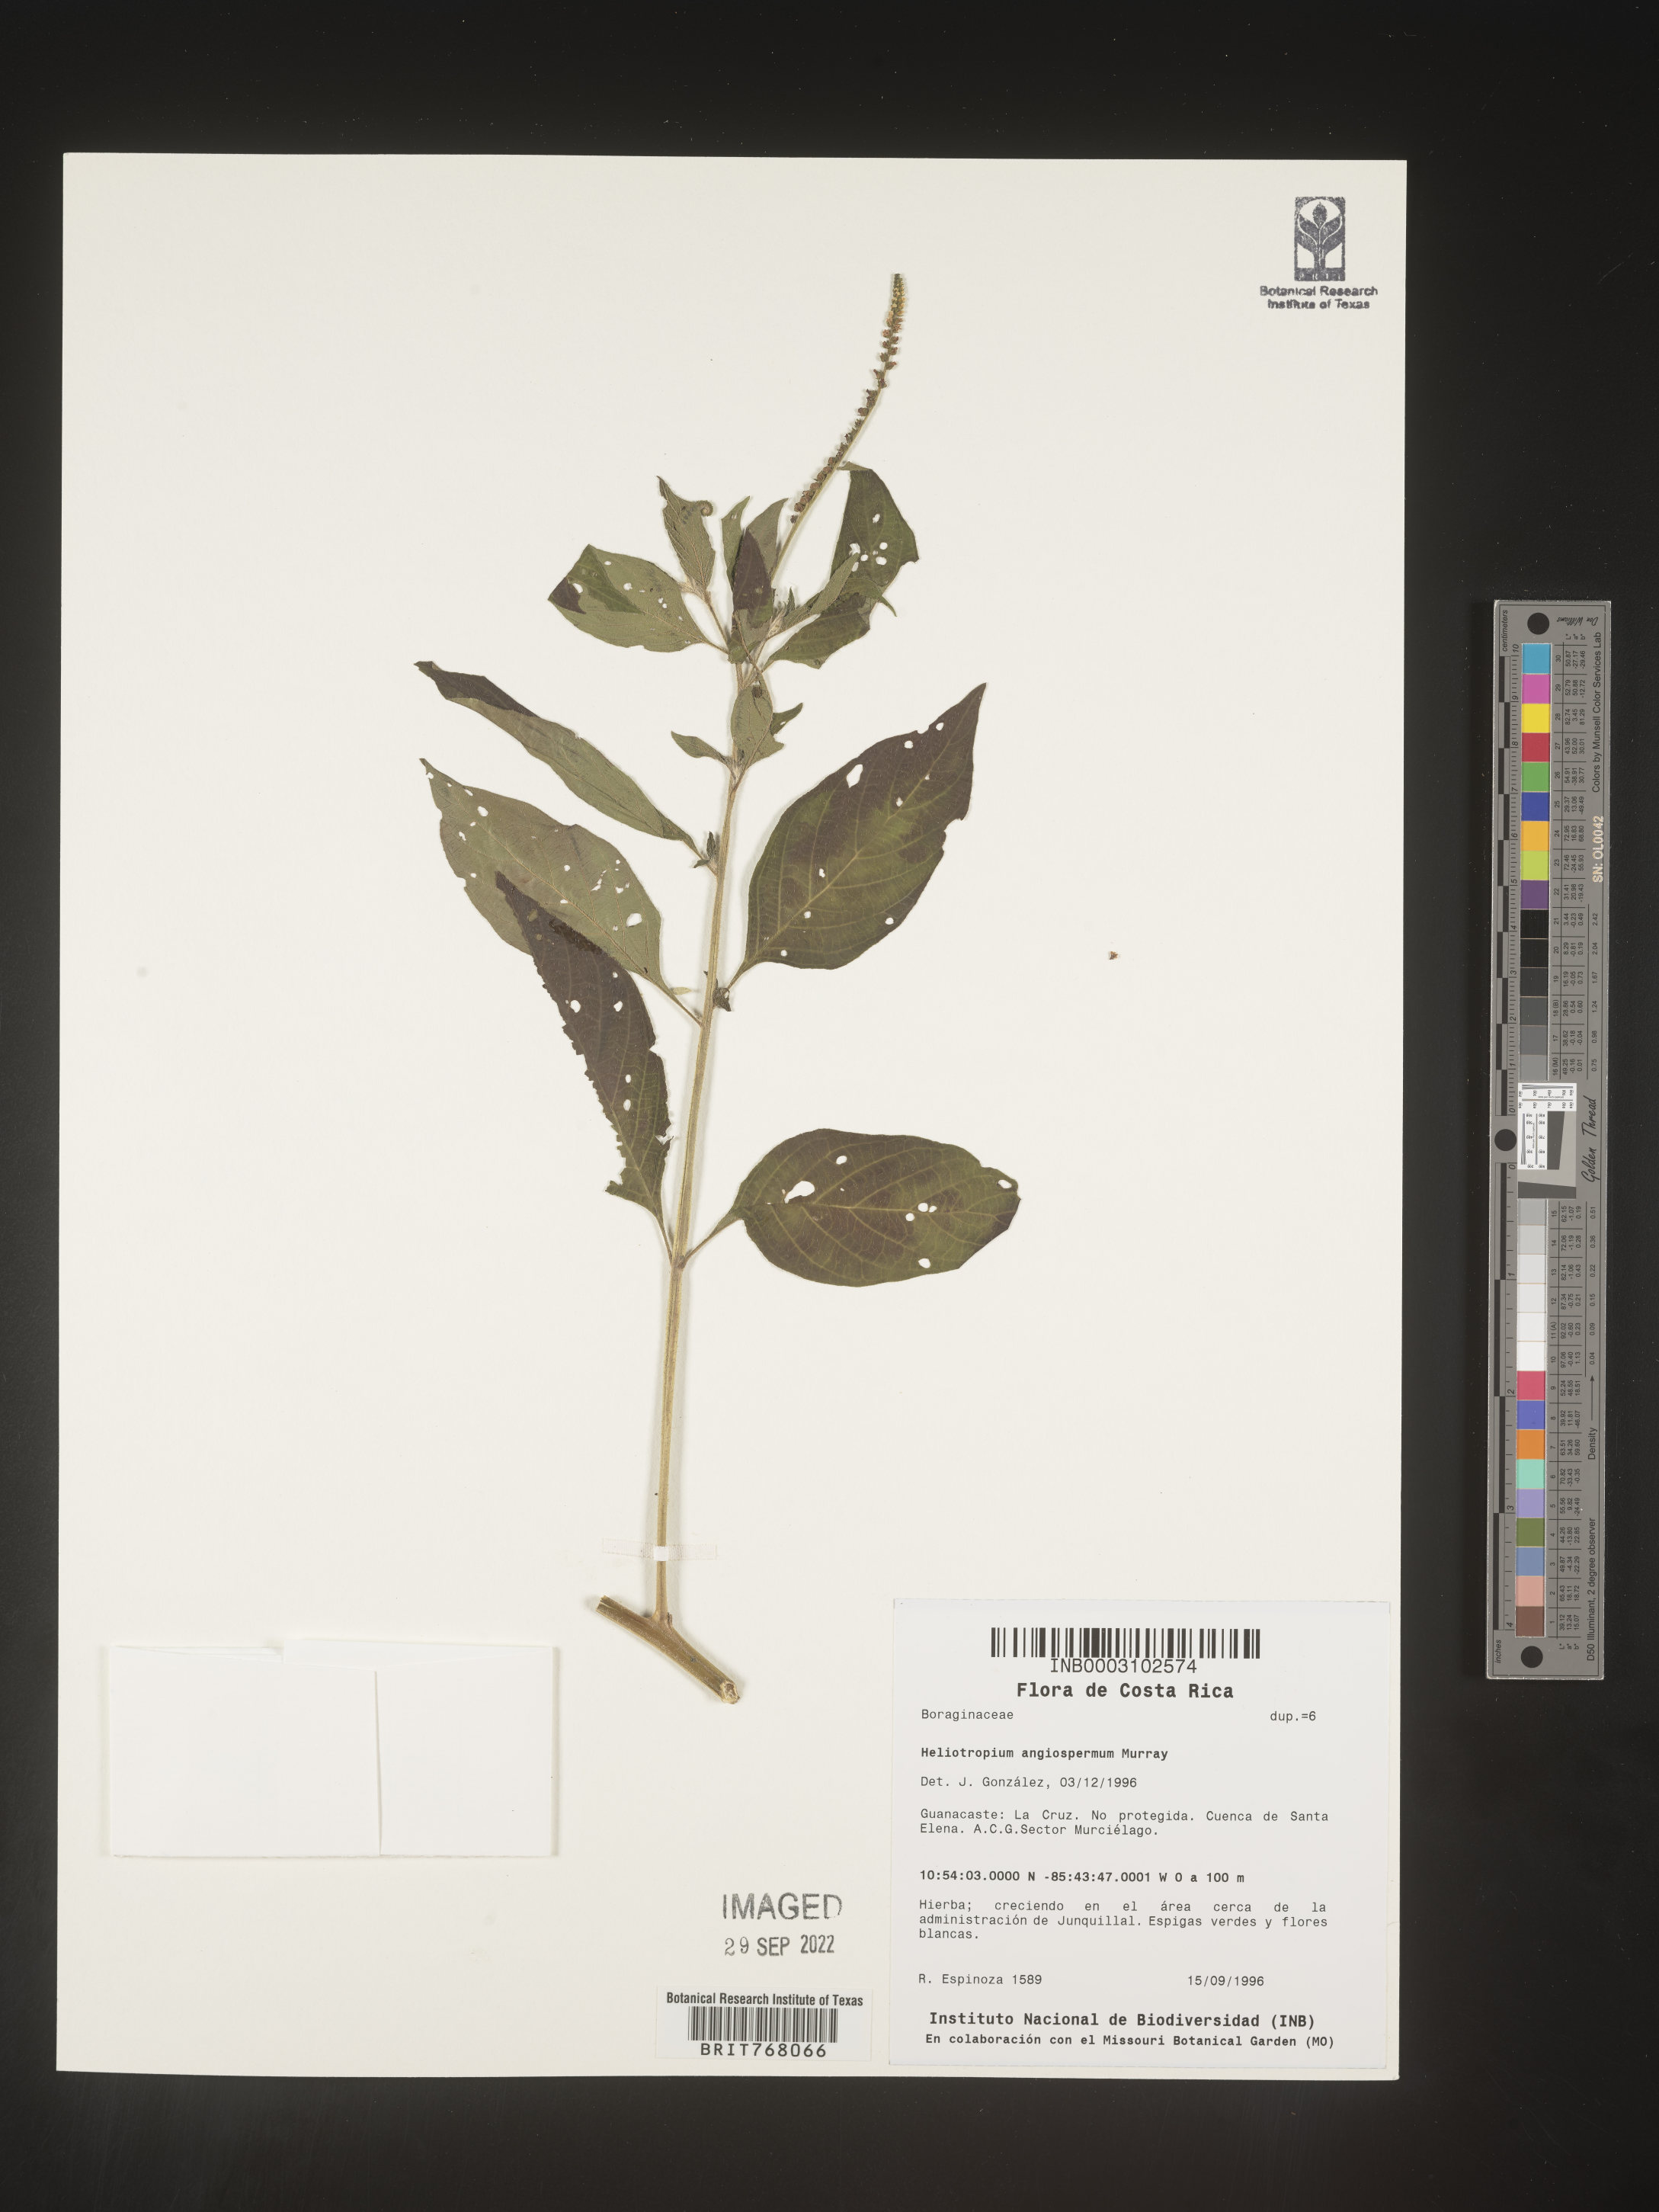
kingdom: Plantae
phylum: Tracheophyta
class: Magnoliopsida
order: Boraginales
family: Heliotropiaceae
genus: Heliotropium
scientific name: Heliotropium
